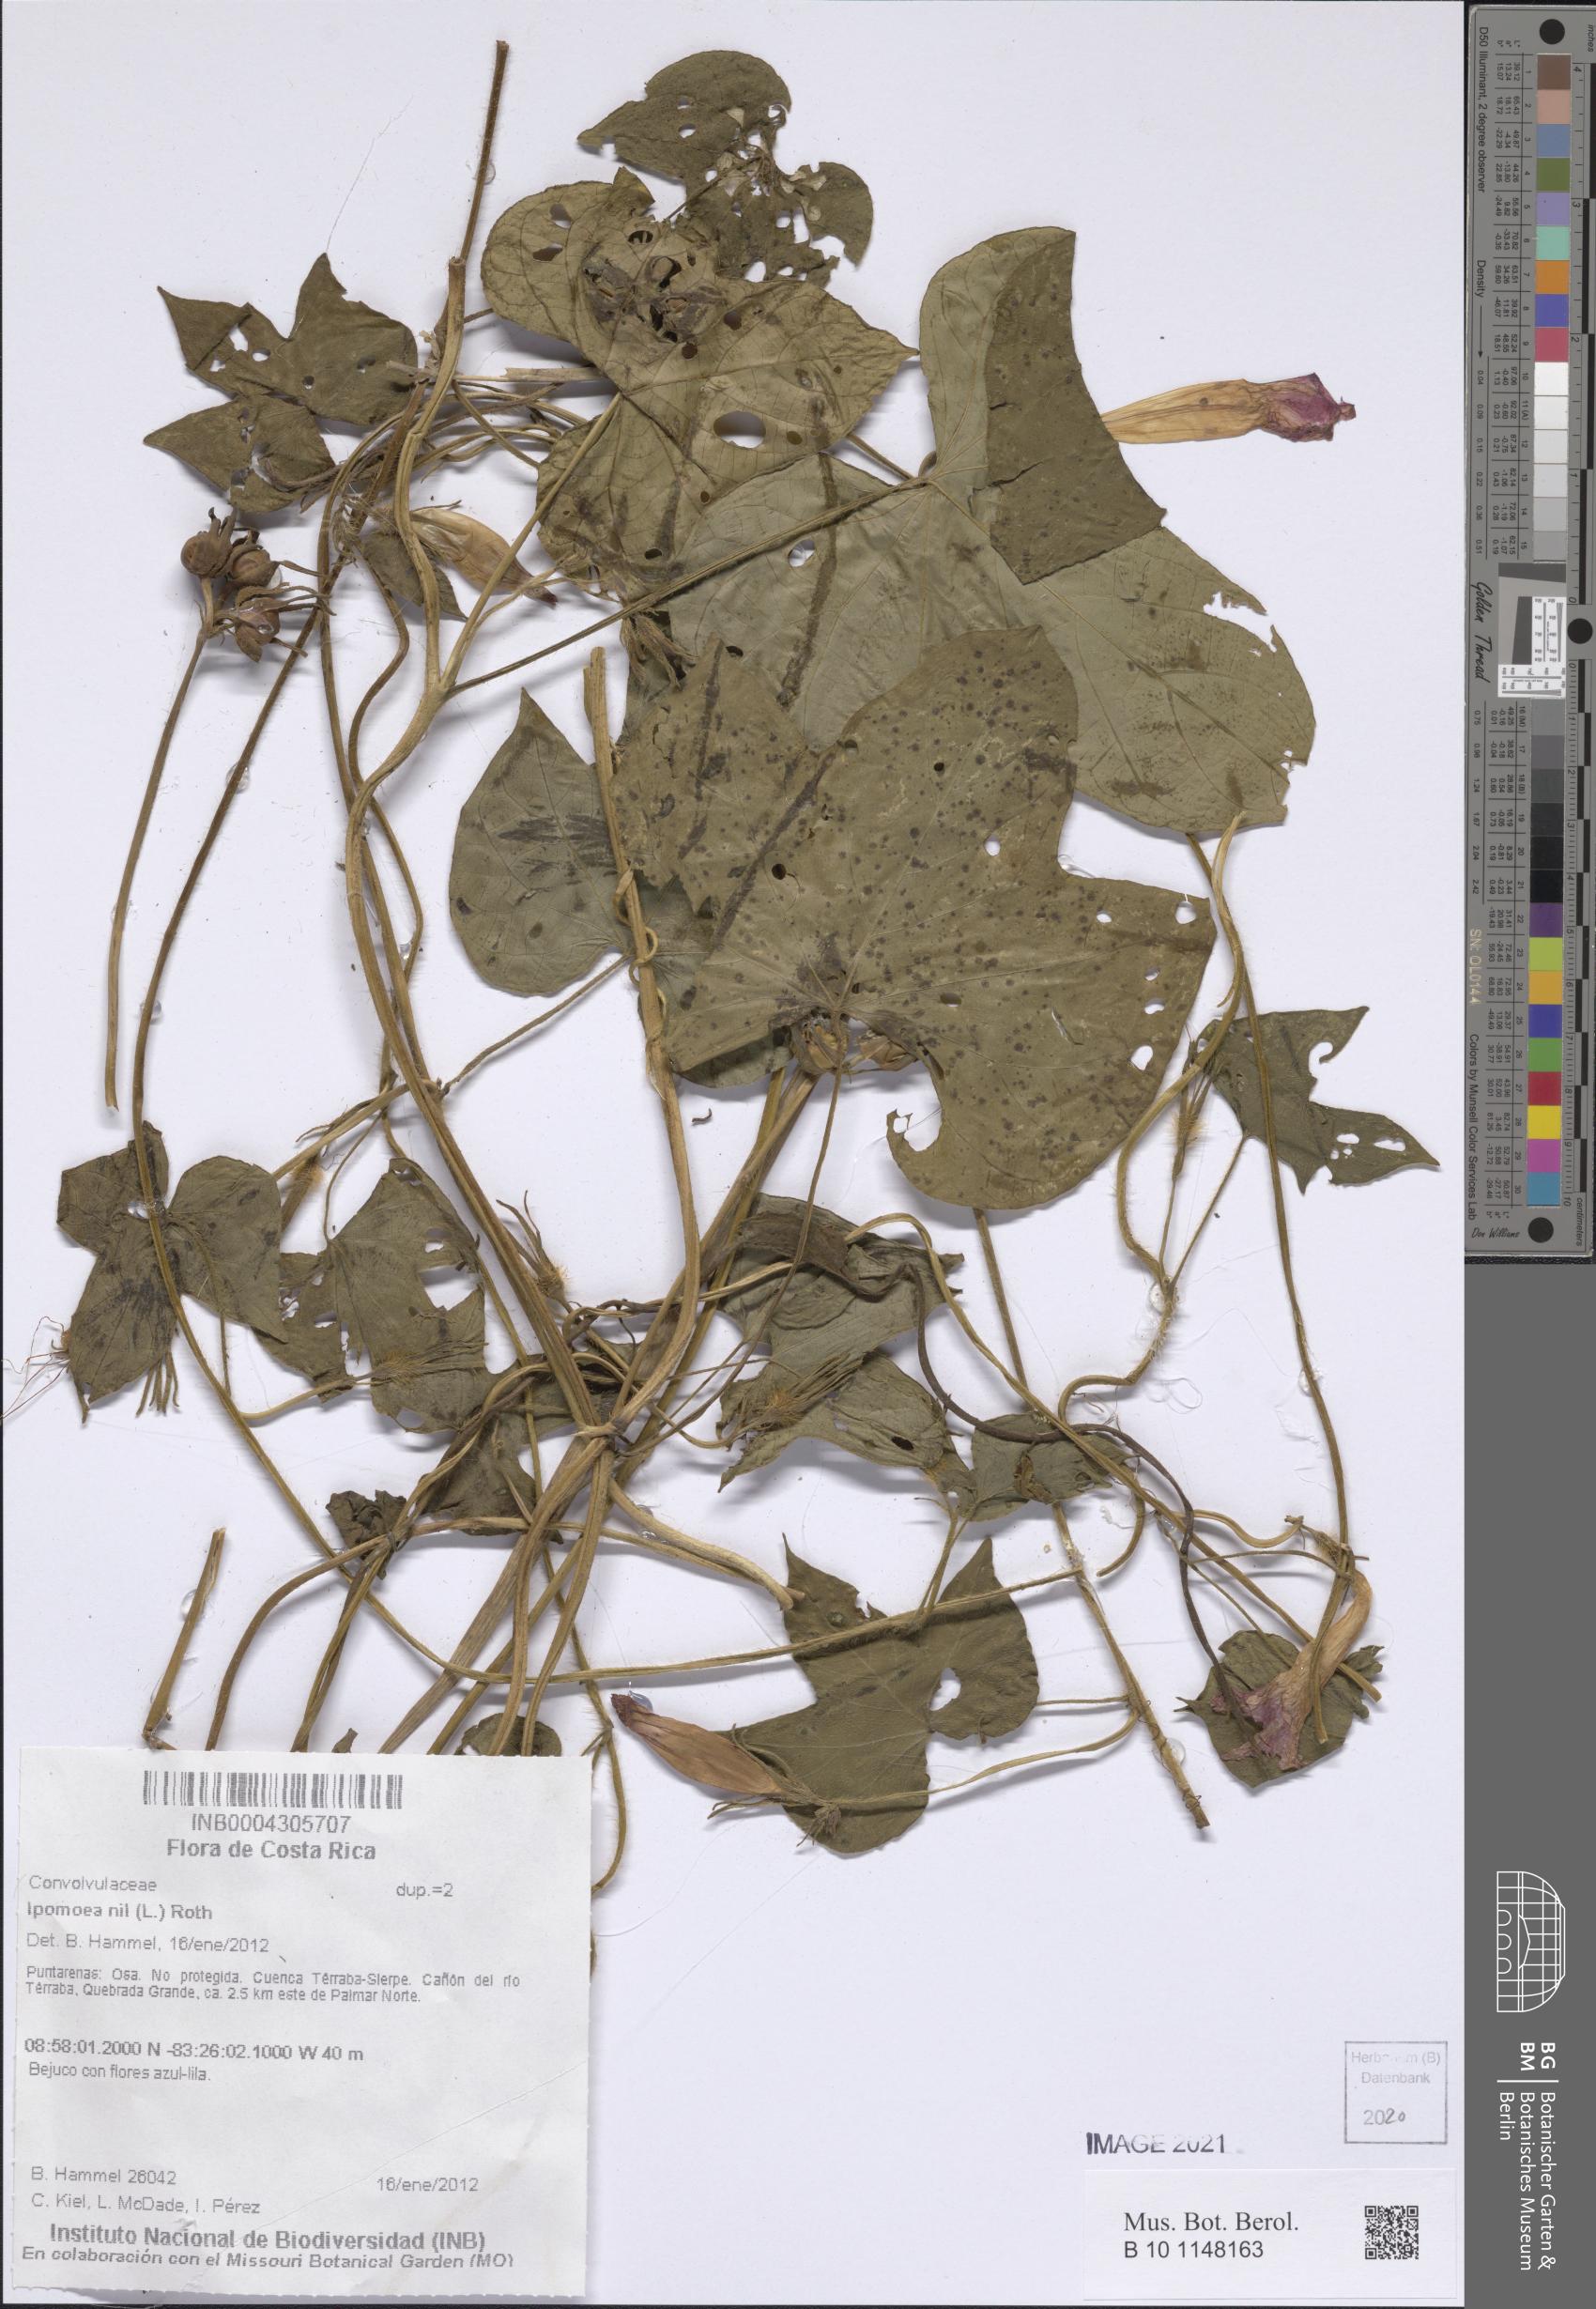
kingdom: Plantae
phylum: Tracheophyta
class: Magnoliopsida
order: Solanales
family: Convolvulaceae
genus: Ipomoea
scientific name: Ipomoea nil
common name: Japanese morning-glory
